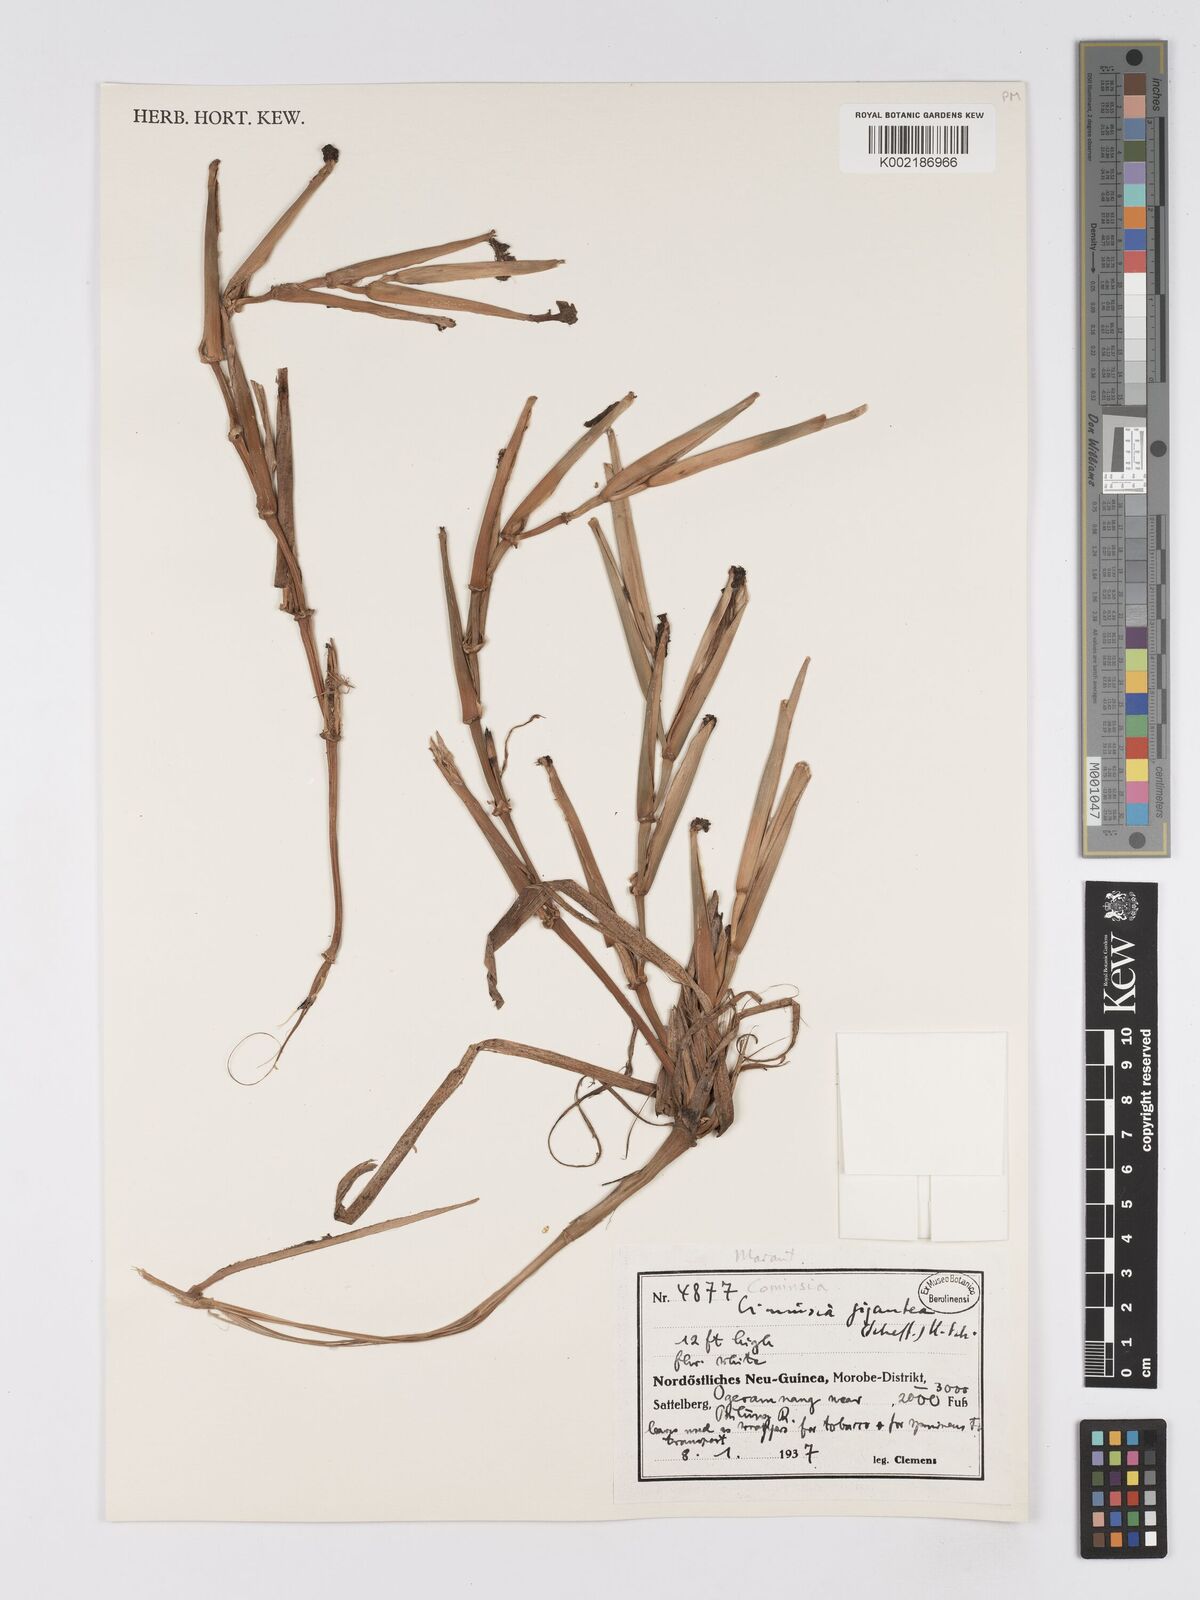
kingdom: Plantae
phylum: Tracheophyta
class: Liliopsida
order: Zingiberales
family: Marantaceae
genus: Phrynium
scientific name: Phrynium giganteum
